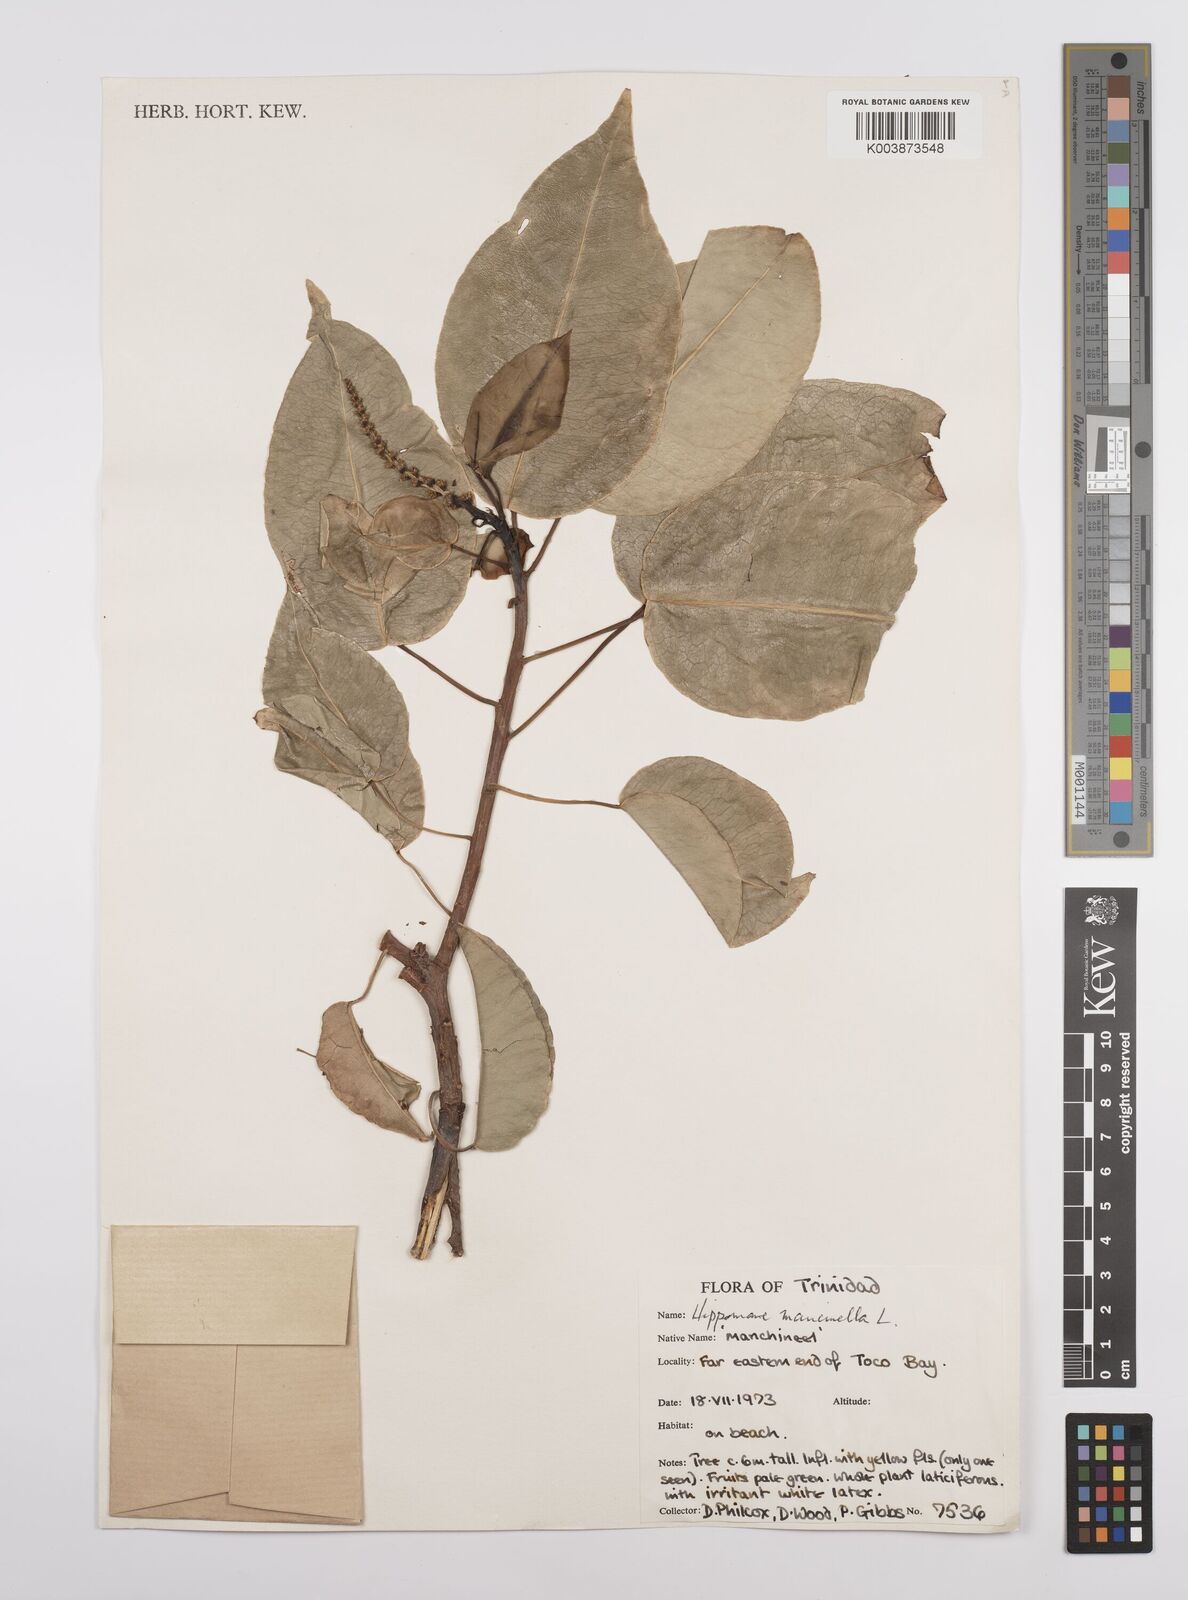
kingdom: Plantae
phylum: Tracheophyta
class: Magnoliopsida
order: Malpighiales
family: Euphorbiaceae
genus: Hippomane
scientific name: Hippomane mancinella
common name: Manchineel
